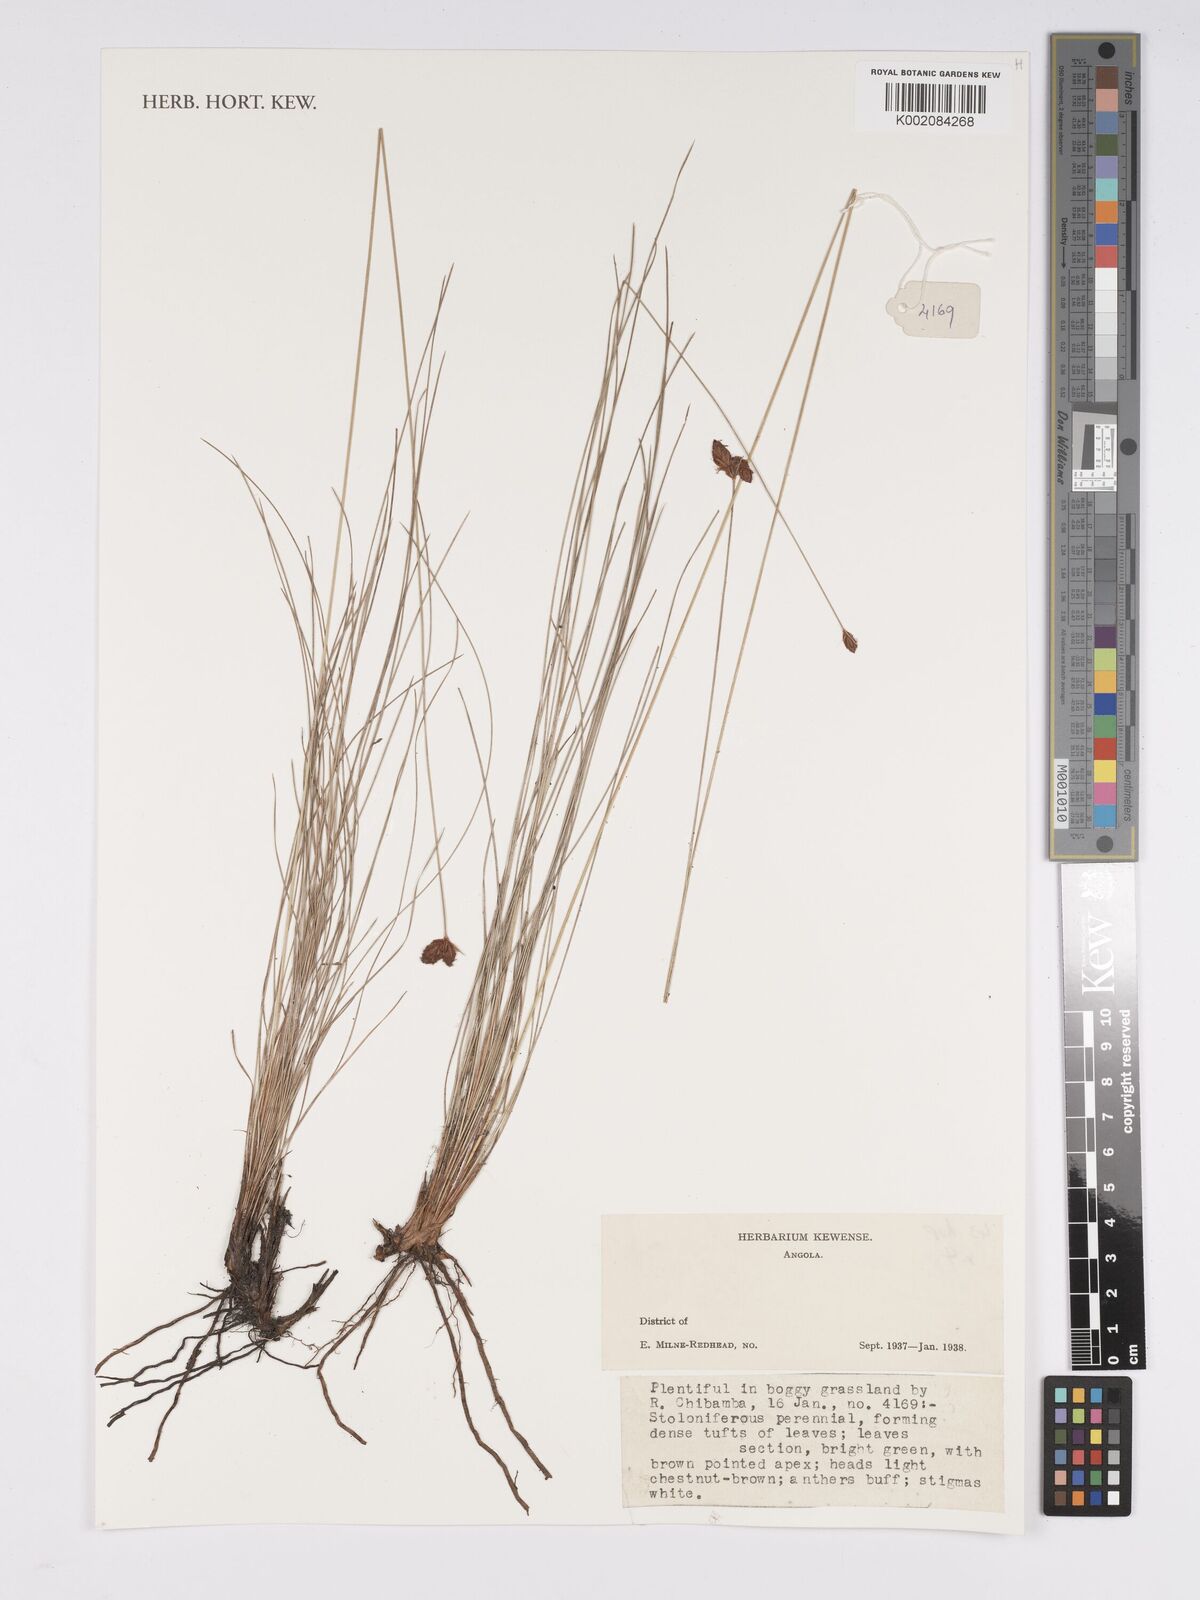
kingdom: Plantae
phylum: Tracheophyta
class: Liliopsida
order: Poales
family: Cyperaceae
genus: Bulbostylis
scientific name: Bulbostylis
